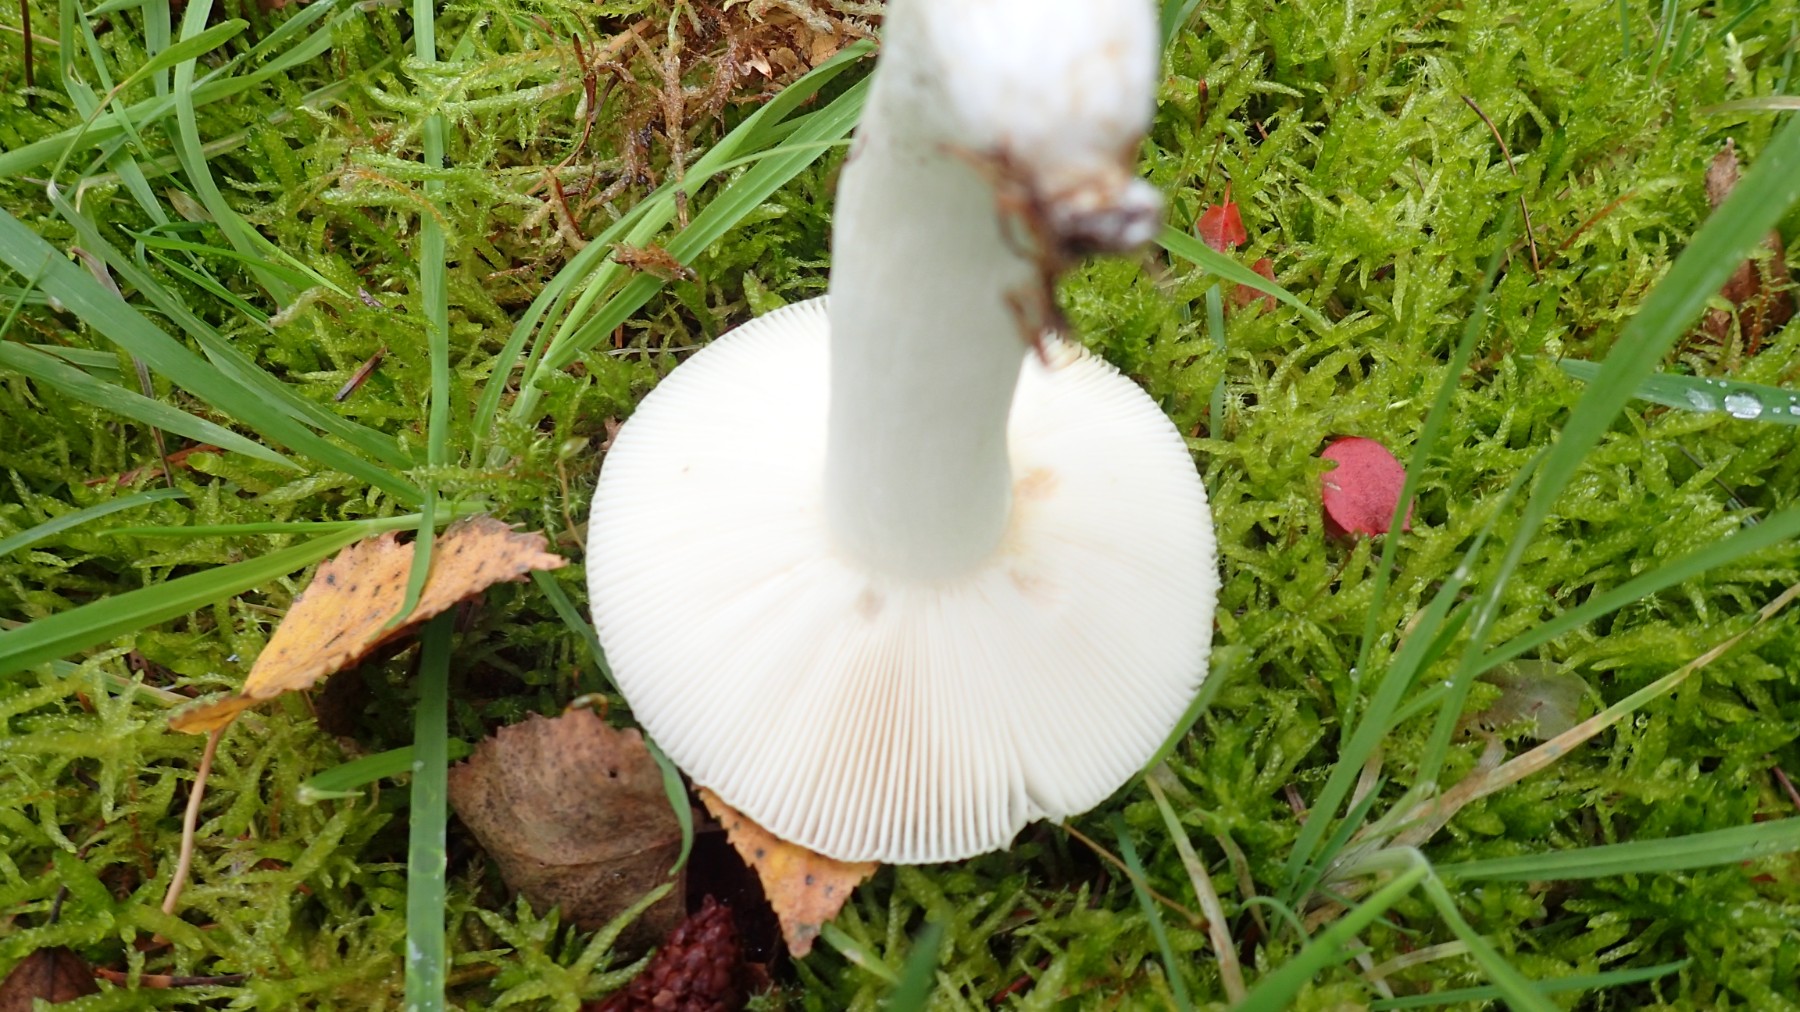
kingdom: Fungi
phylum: Basidiomycota
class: Agaricomycetes
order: Russulales
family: Russulaceae
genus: Russula
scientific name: Russula aeruginea
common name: græsgrøn skørhat
